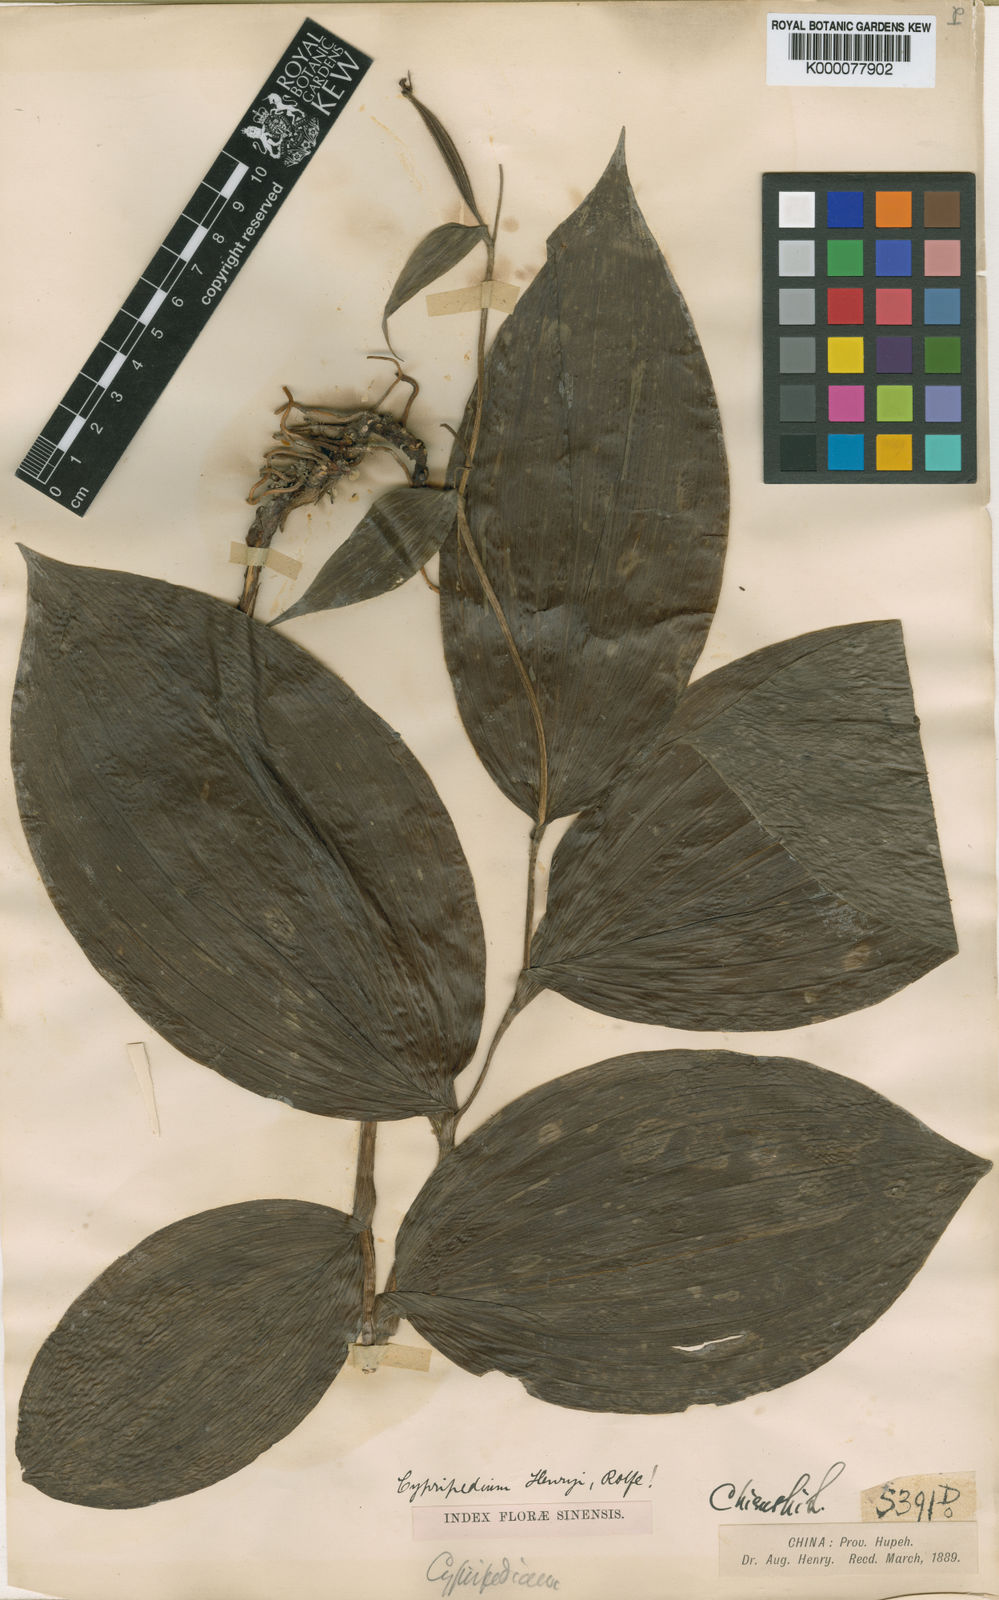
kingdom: Plantae
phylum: Tracheophyta
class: Liliopsida
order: Asparagales
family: Orchidaceae
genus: Cypripedium
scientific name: Cypripedium henryi
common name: Henry's cypripedium
